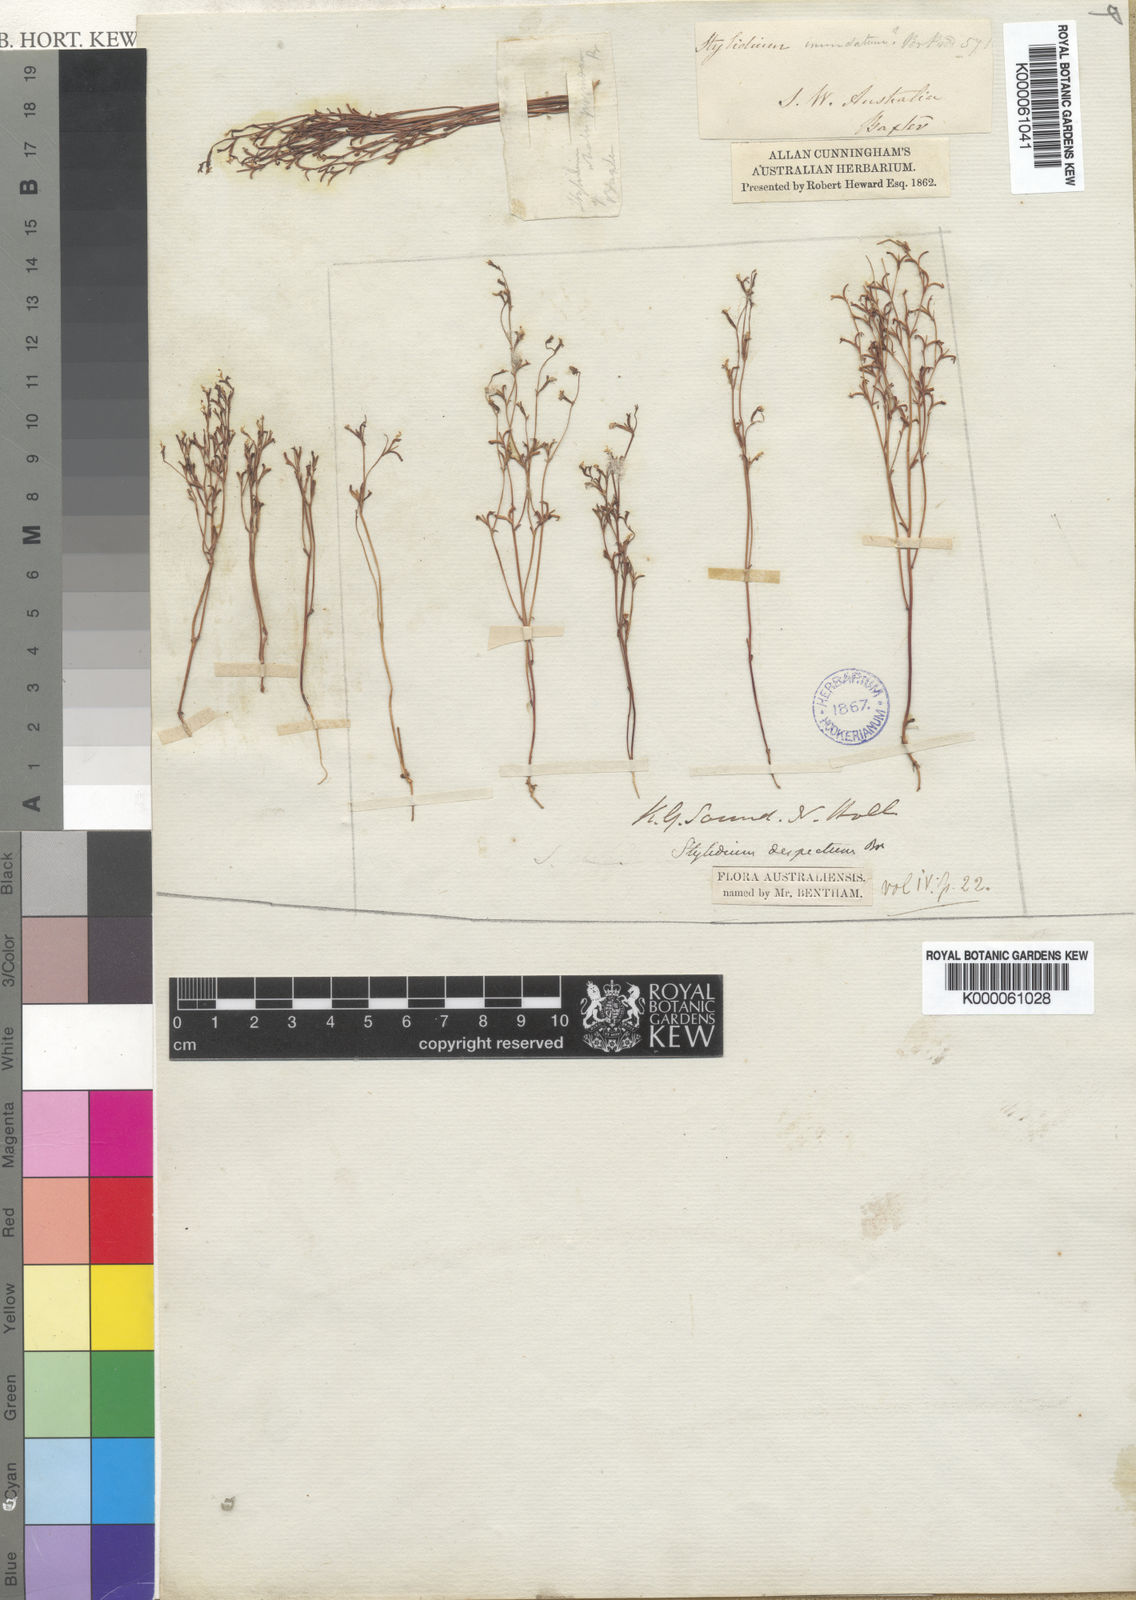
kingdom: Plantae
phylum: Tracheophyta
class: Magnoliopsida
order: Asterales
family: Stylidiaceae
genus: Stylidium
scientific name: Stylidium pygmaeum
